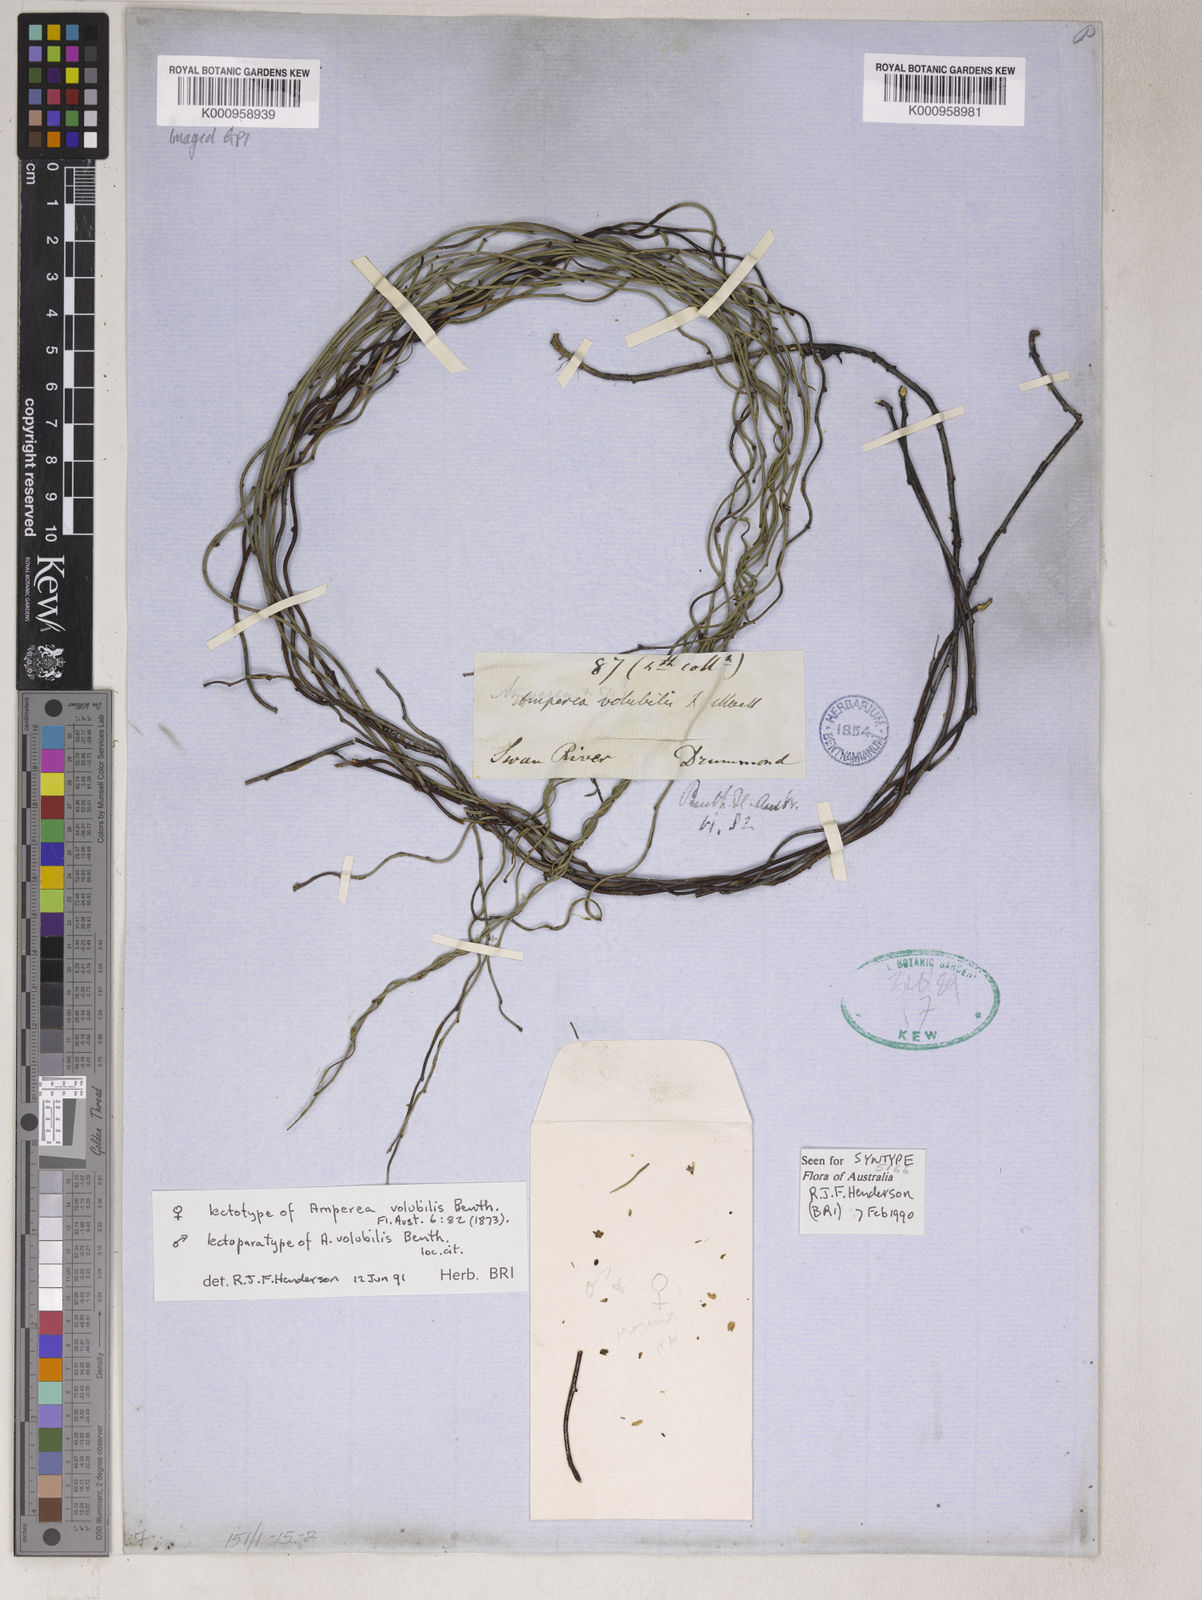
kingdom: Plantae
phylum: Tracheophyta
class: Magnoliopsida
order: Malpighiales
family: Euphorbiaceae
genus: Amperea
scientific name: Amperea volubilis
